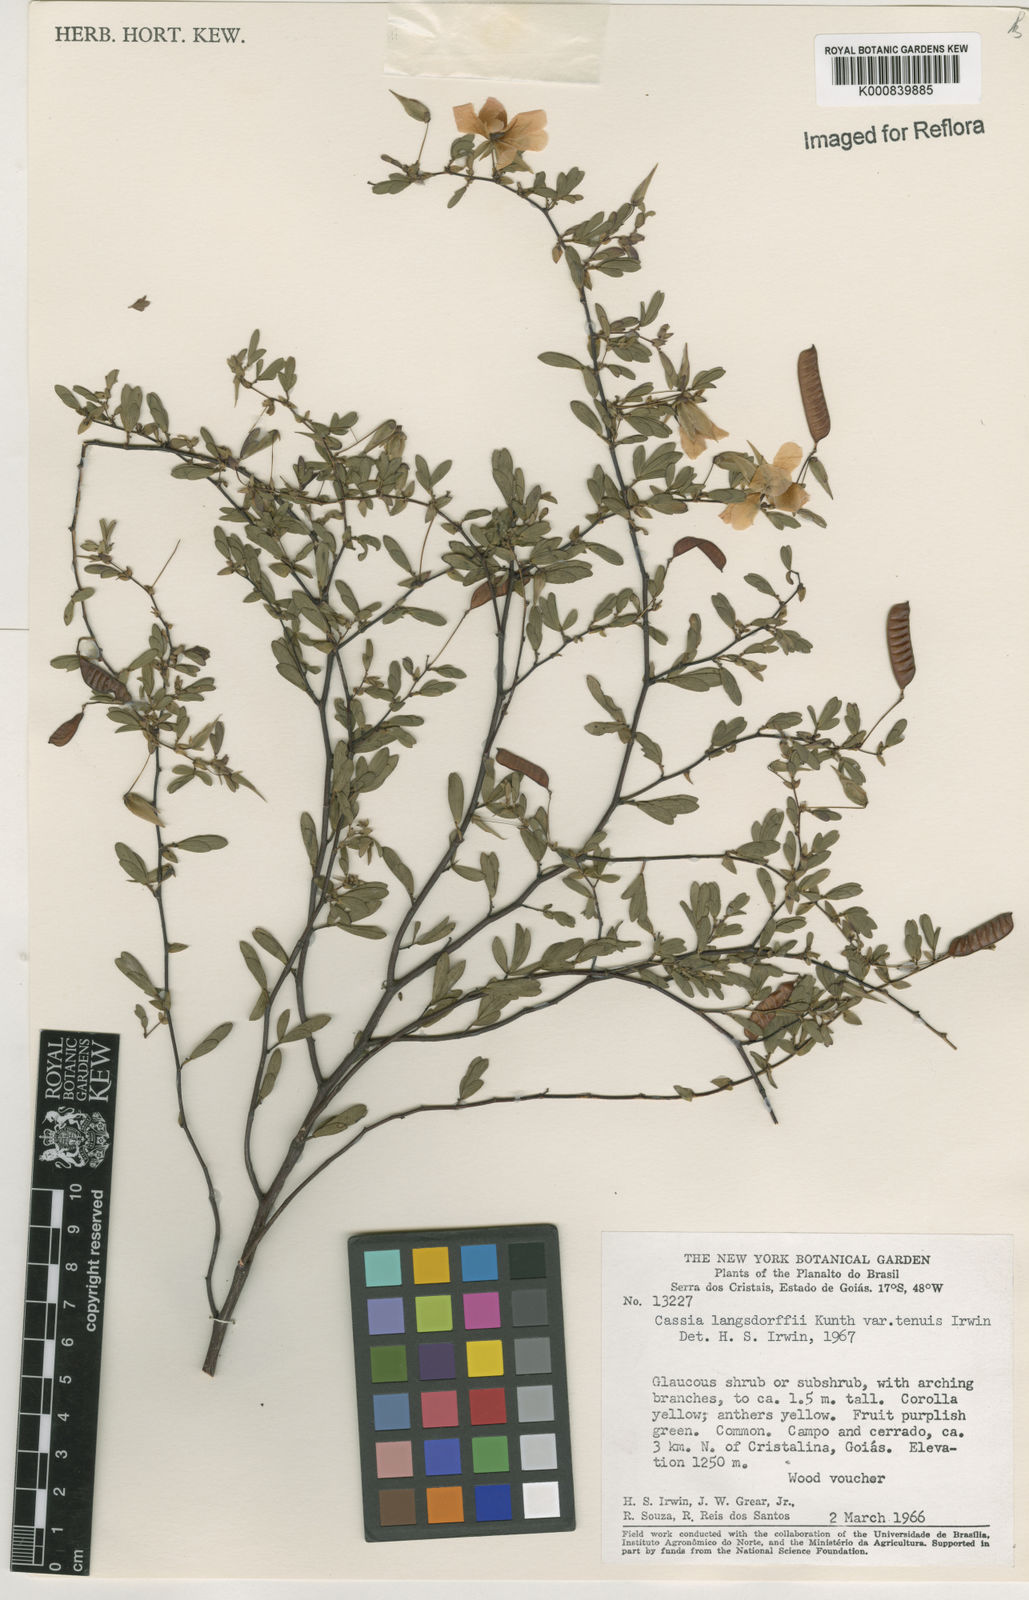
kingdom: Plantae
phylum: Tracheophyta
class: Magnoliopsida
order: Fabales
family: Fabaceae
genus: Chamaecrista
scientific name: Chamaecrista ramosa
